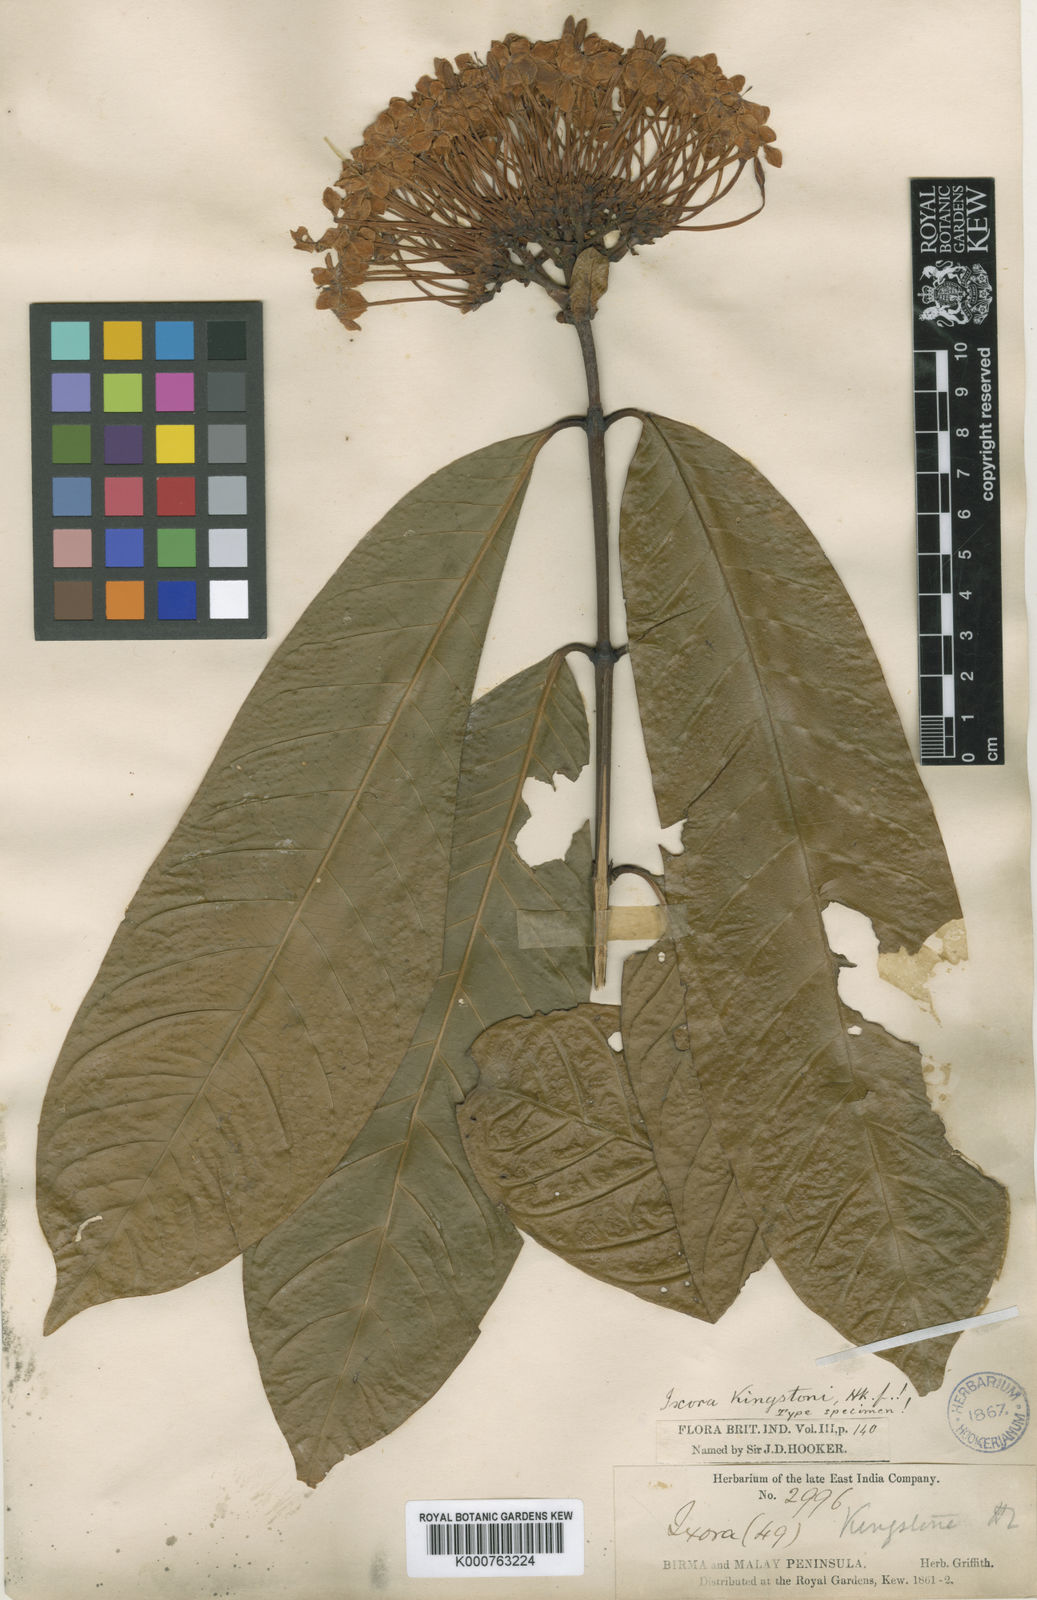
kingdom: Plantae
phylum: Tracheophyta
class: Magnoliopsida
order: Gentianales
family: Rubiaceae
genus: Ixora
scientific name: Ixora kingstoni
